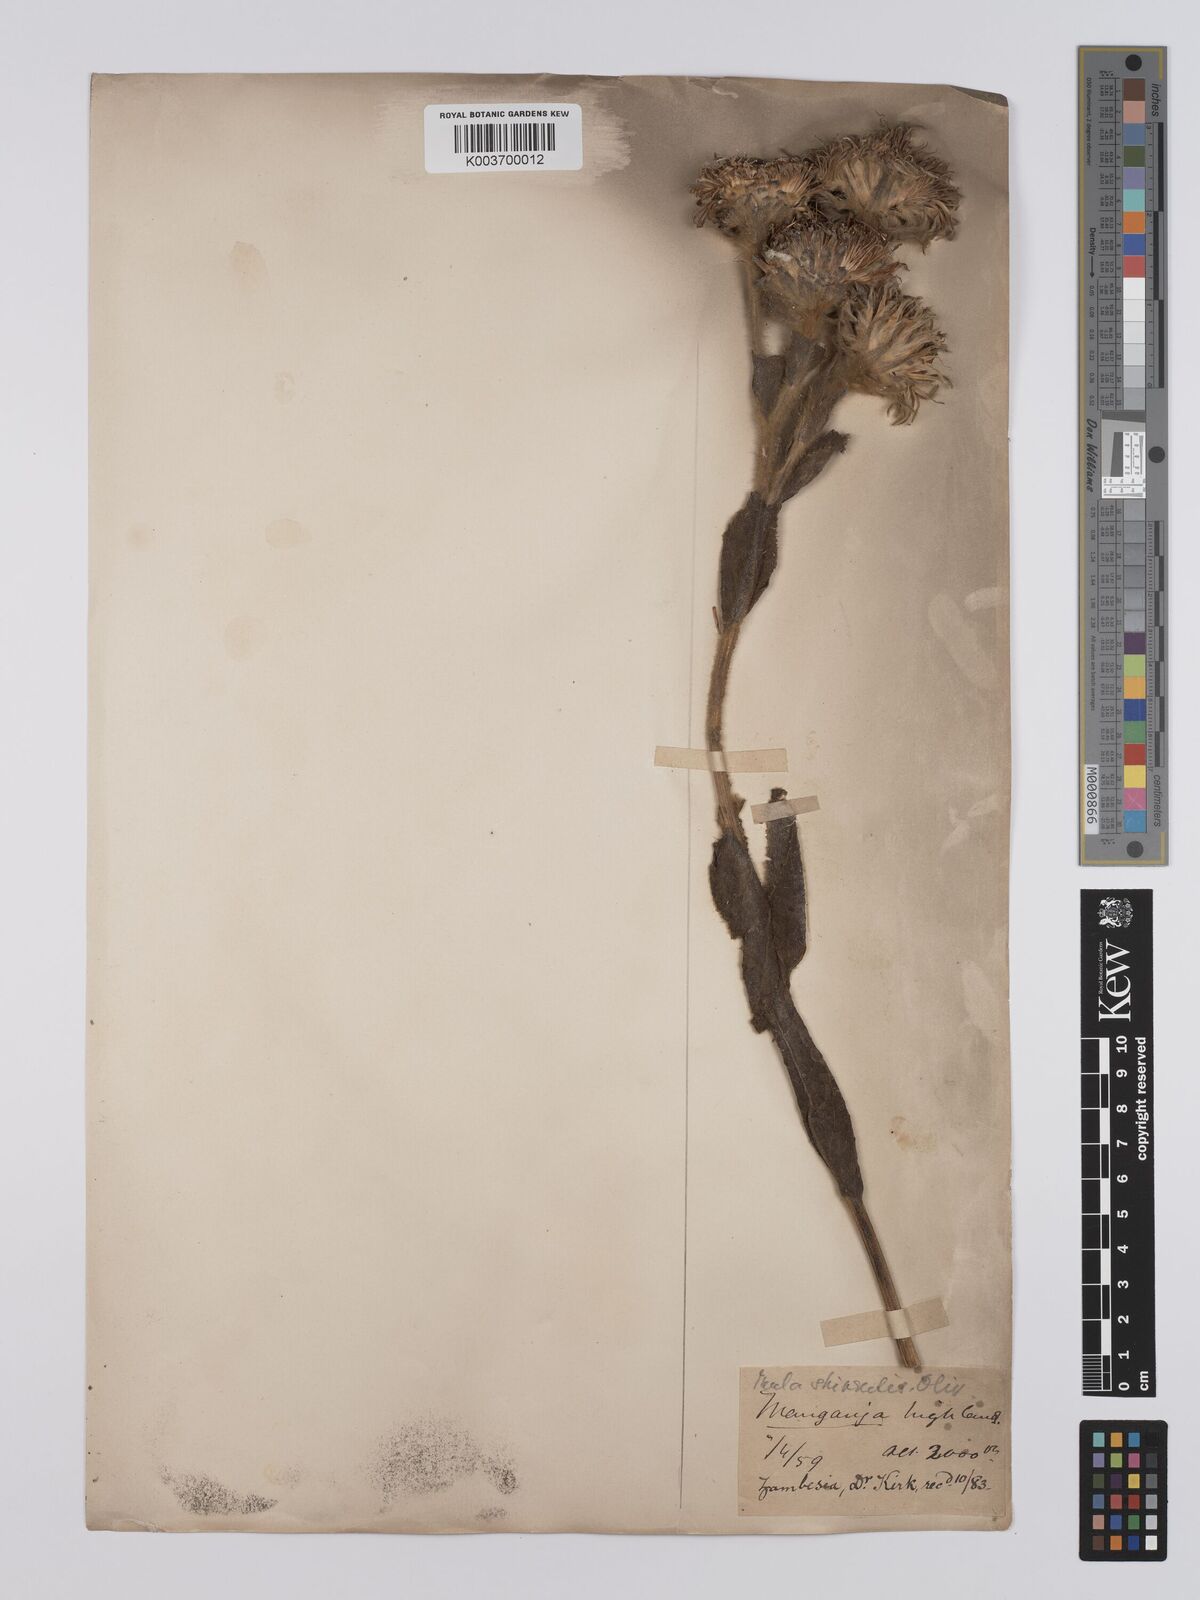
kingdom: Plantae
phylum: Tracheophyta
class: Magnoliopsida
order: Asterales
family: Asteraceae
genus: Monactinocephalus
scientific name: Monactinocephalus shirensis
